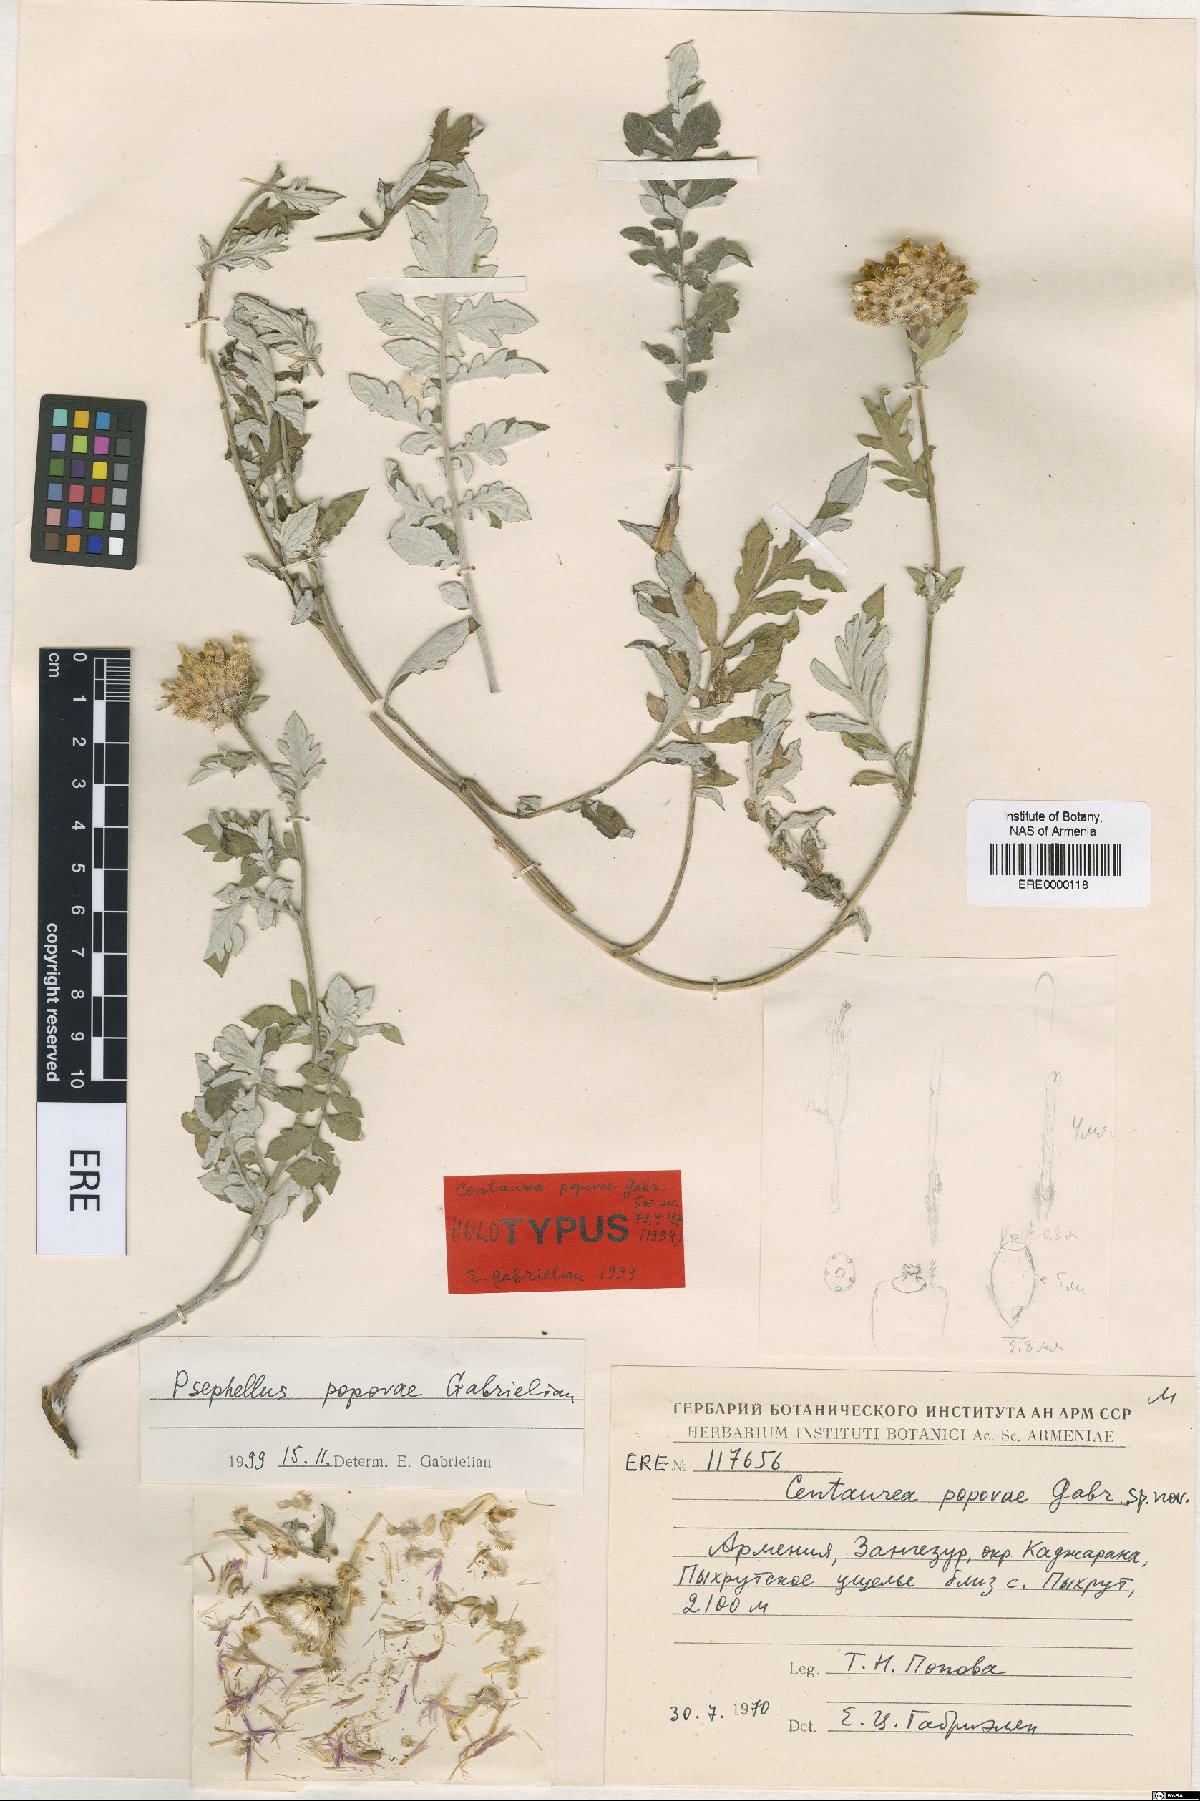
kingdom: Plantae
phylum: Tracheophyta
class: Magnoliopsida
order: Asterales
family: Asteraceae
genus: Psephellus
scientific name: Psephellus popovae
